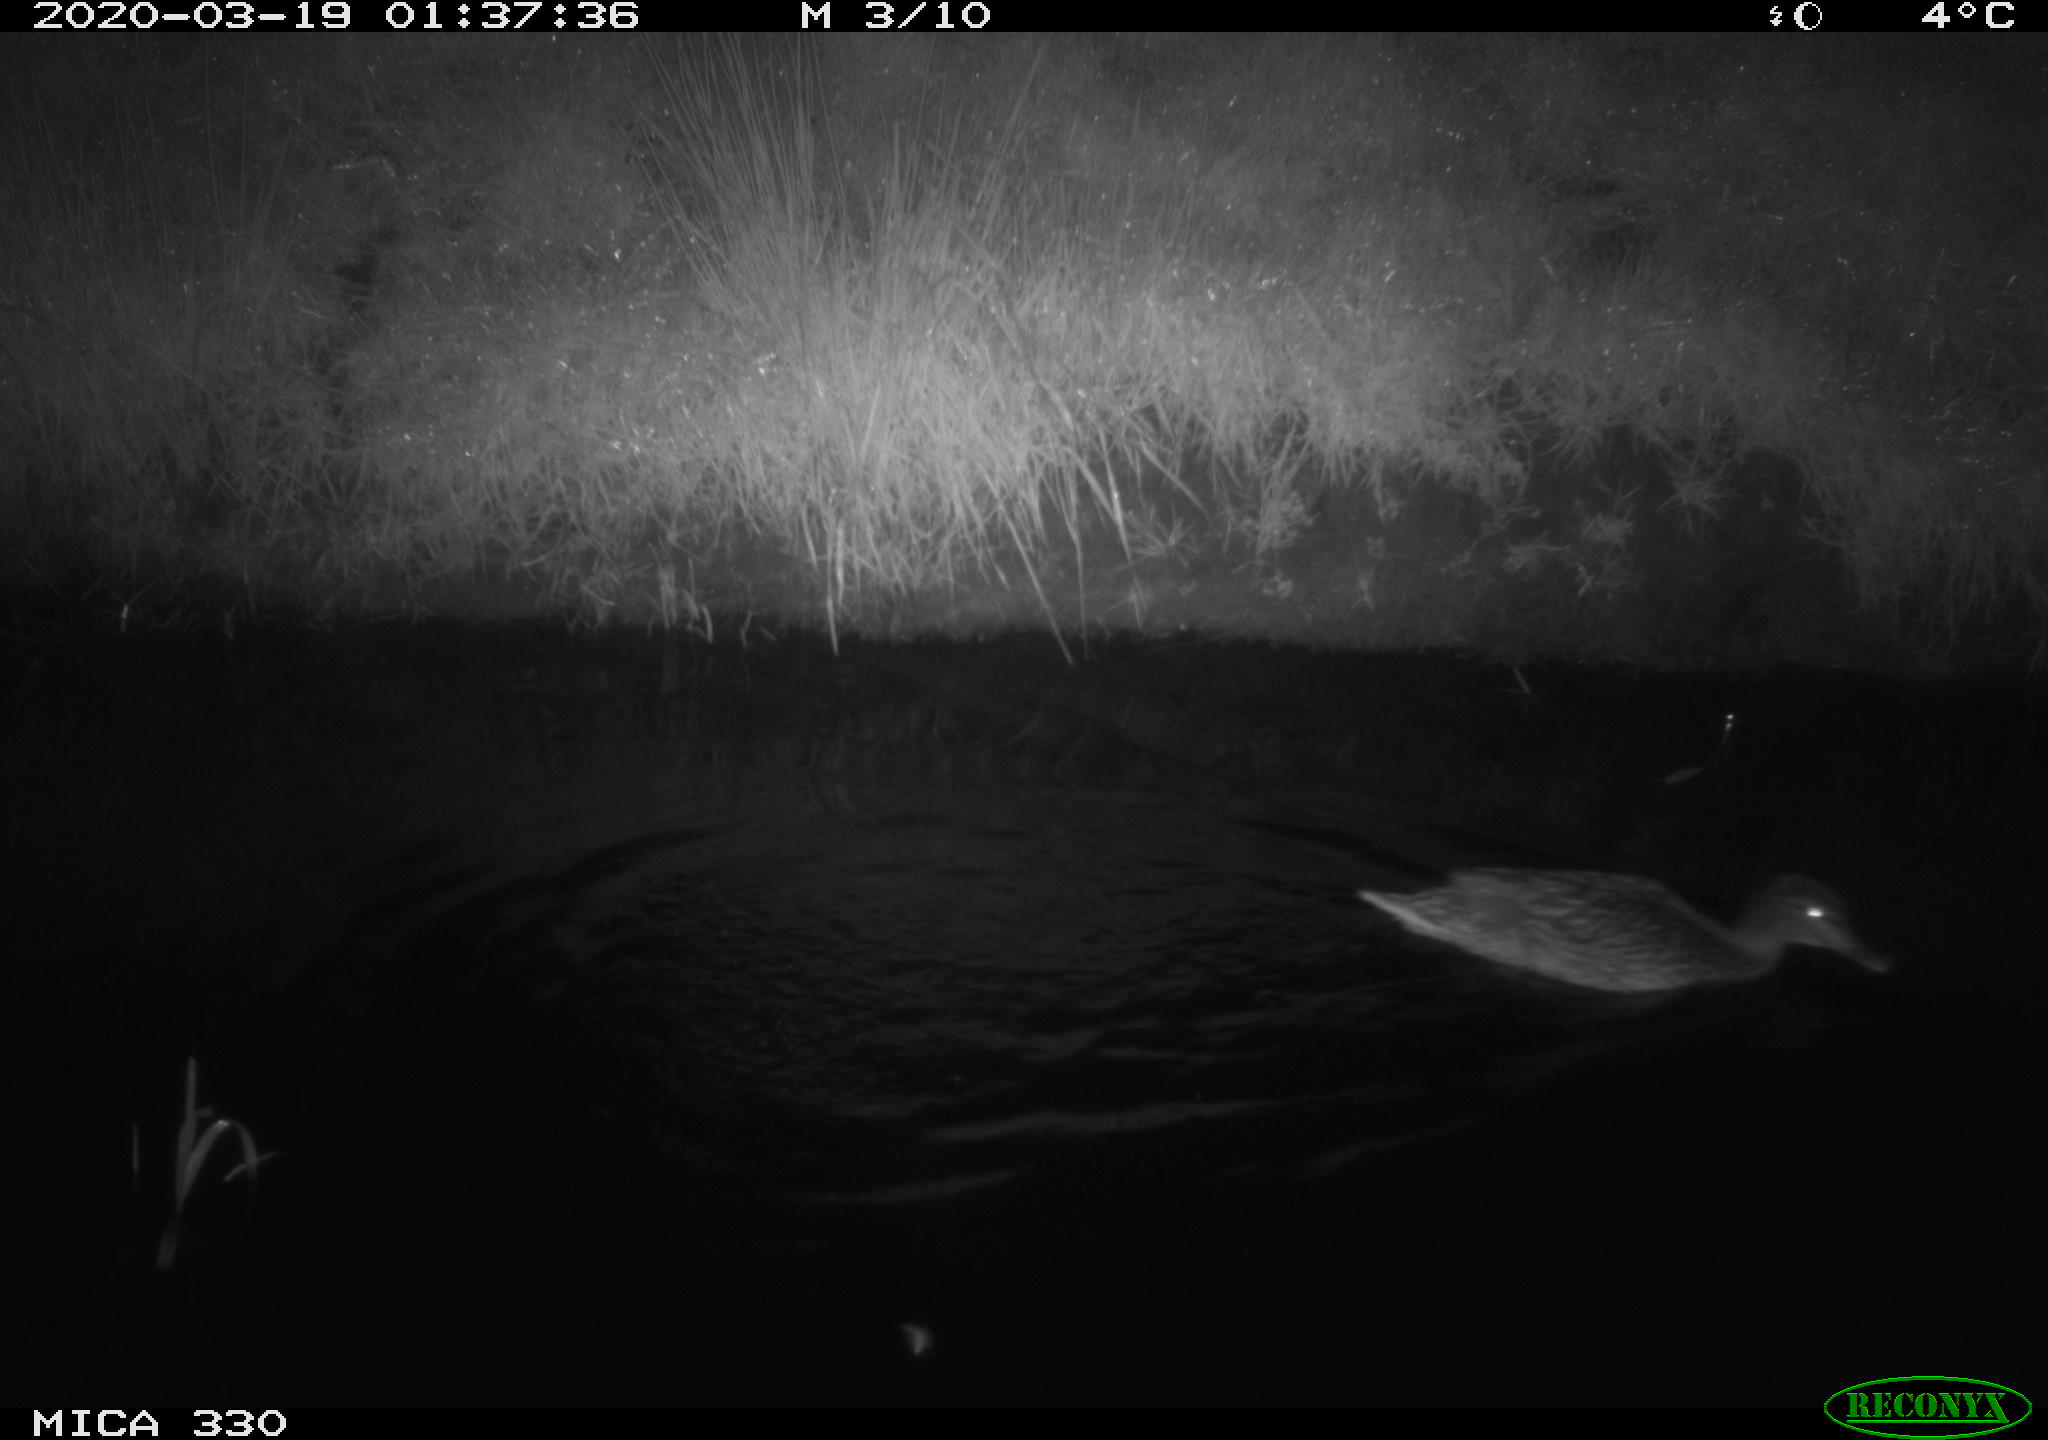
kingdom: Animalia
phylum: Chordata
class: Aves
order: Anseriformes
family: Anatidae
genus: Anas
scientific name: Anas platyrhynchos
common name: Mallard
